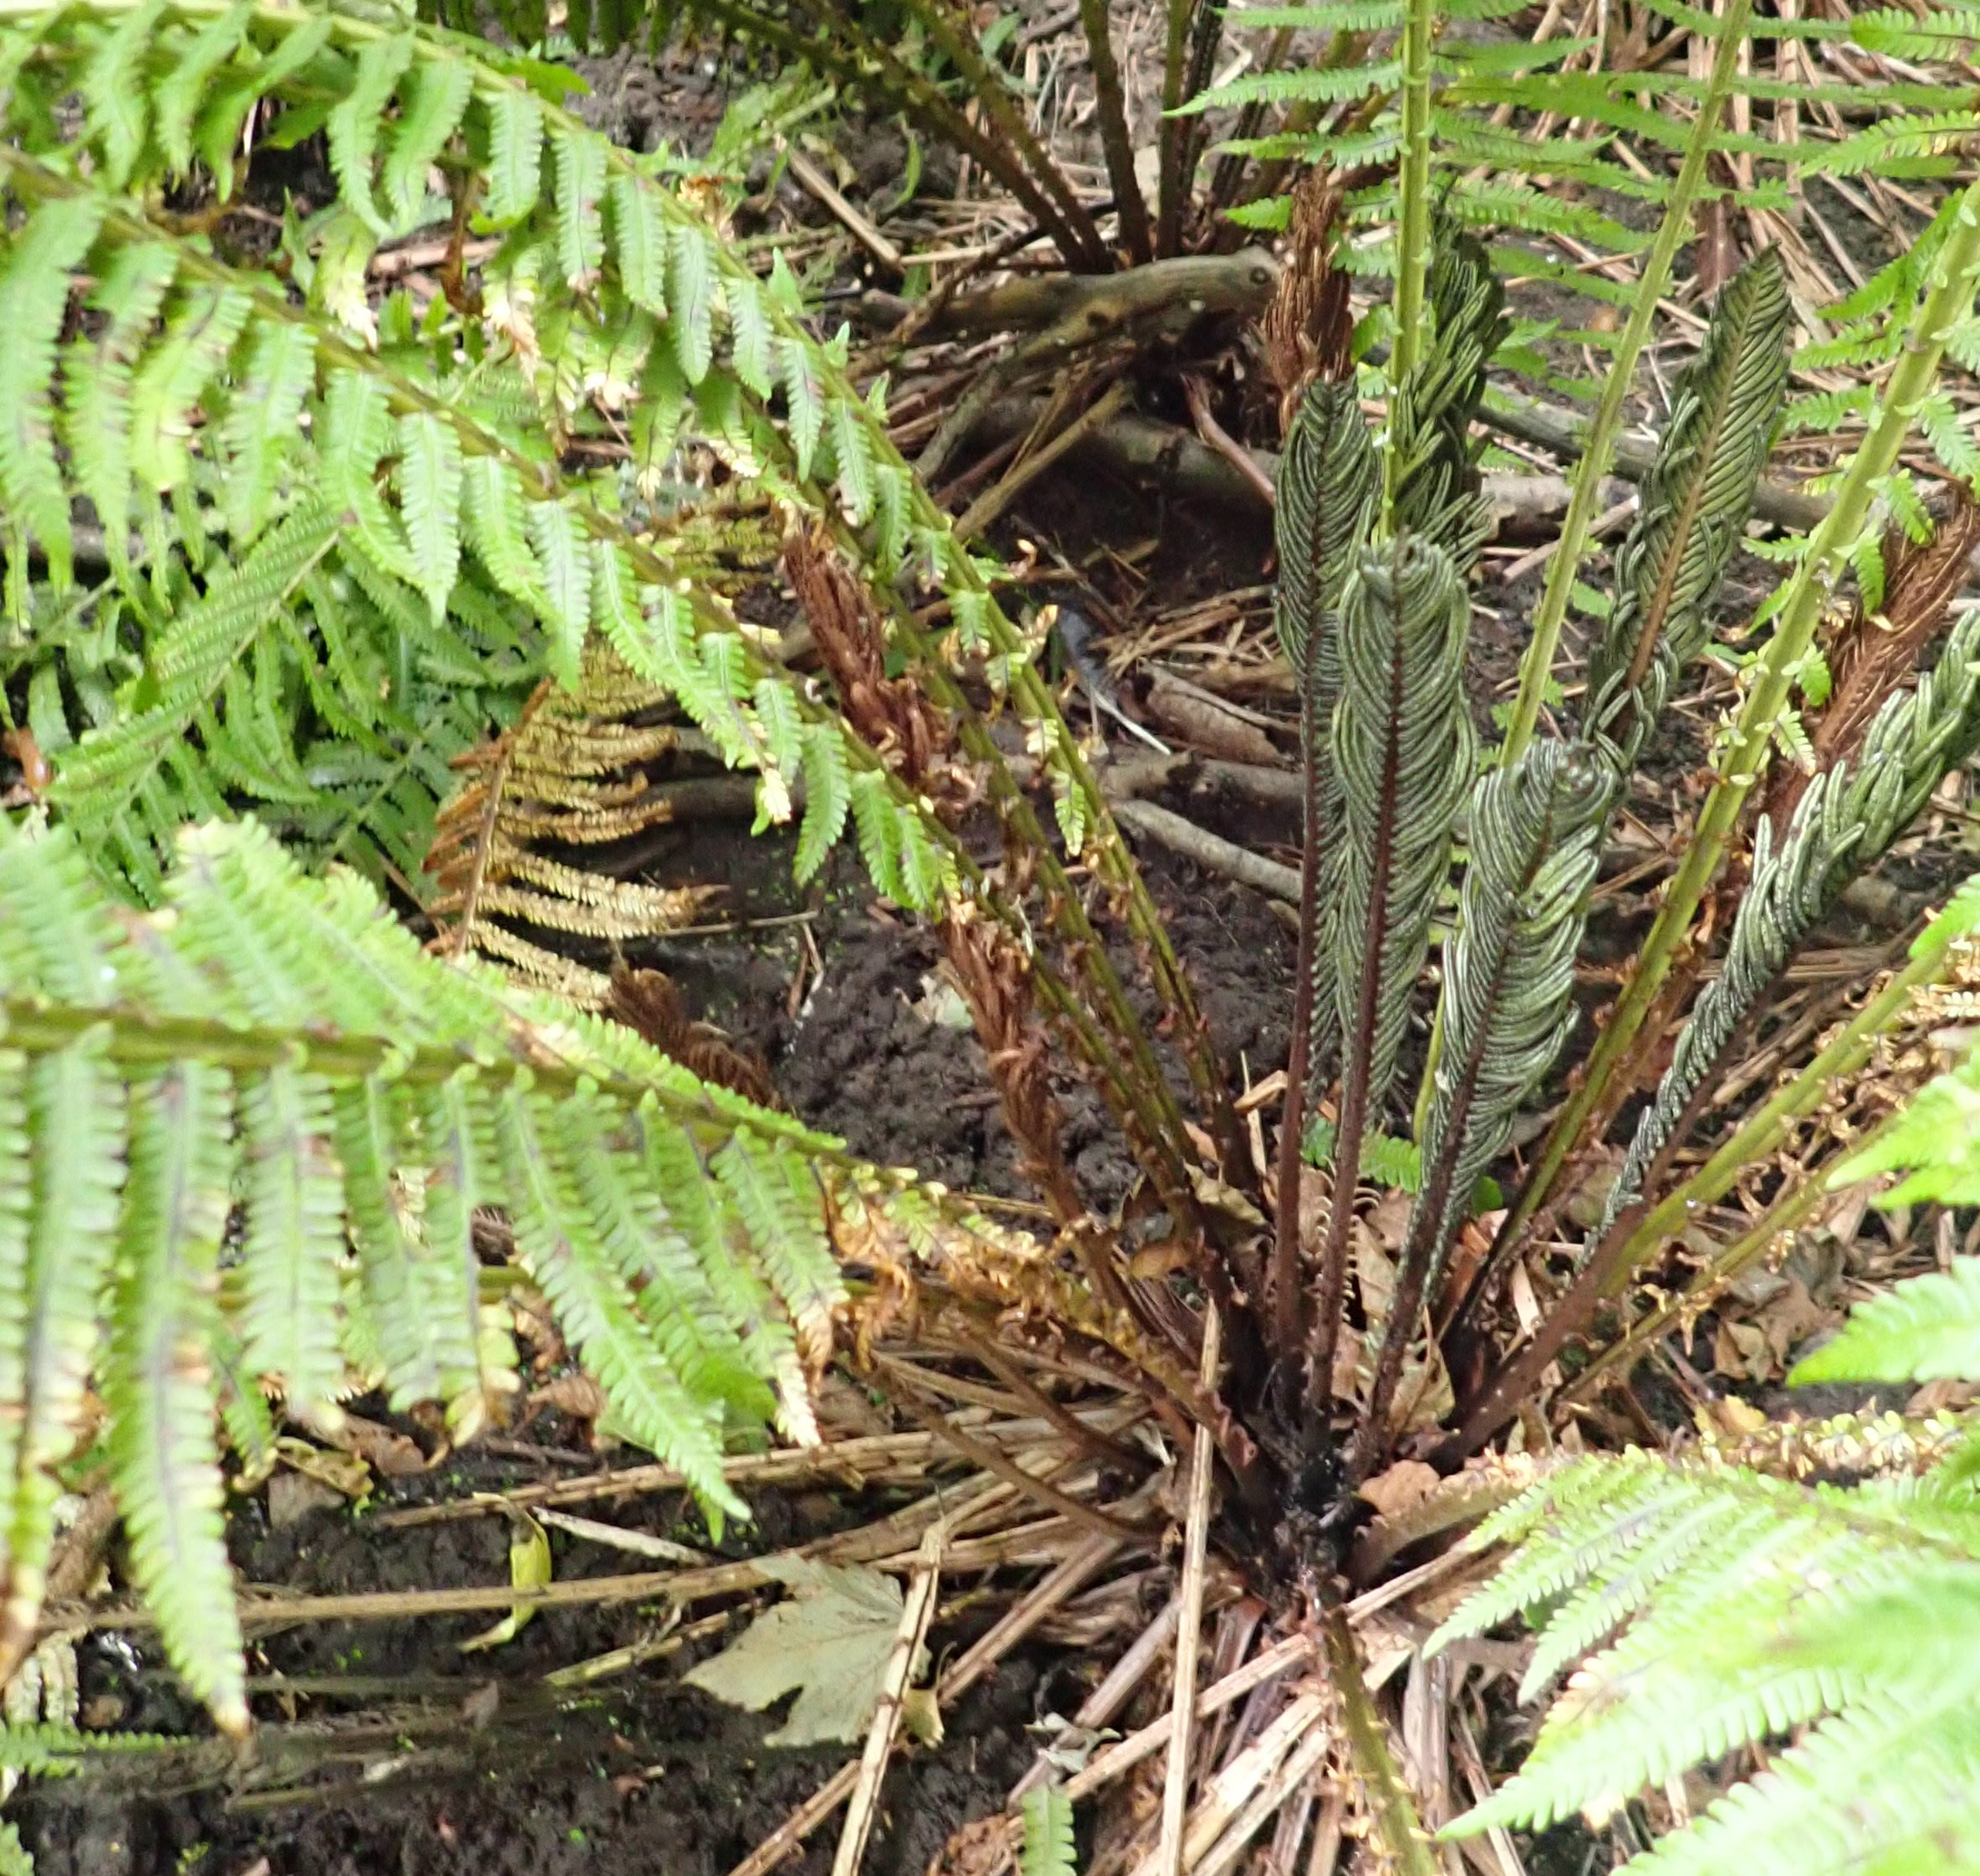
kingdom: Plantae
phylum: Tracheophyta
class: Polypodiopsida
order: Polypodiales
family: Onocleaceae
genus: Matteuccia
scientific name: Matteuccia struthiopteris
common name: Strudsvinge
